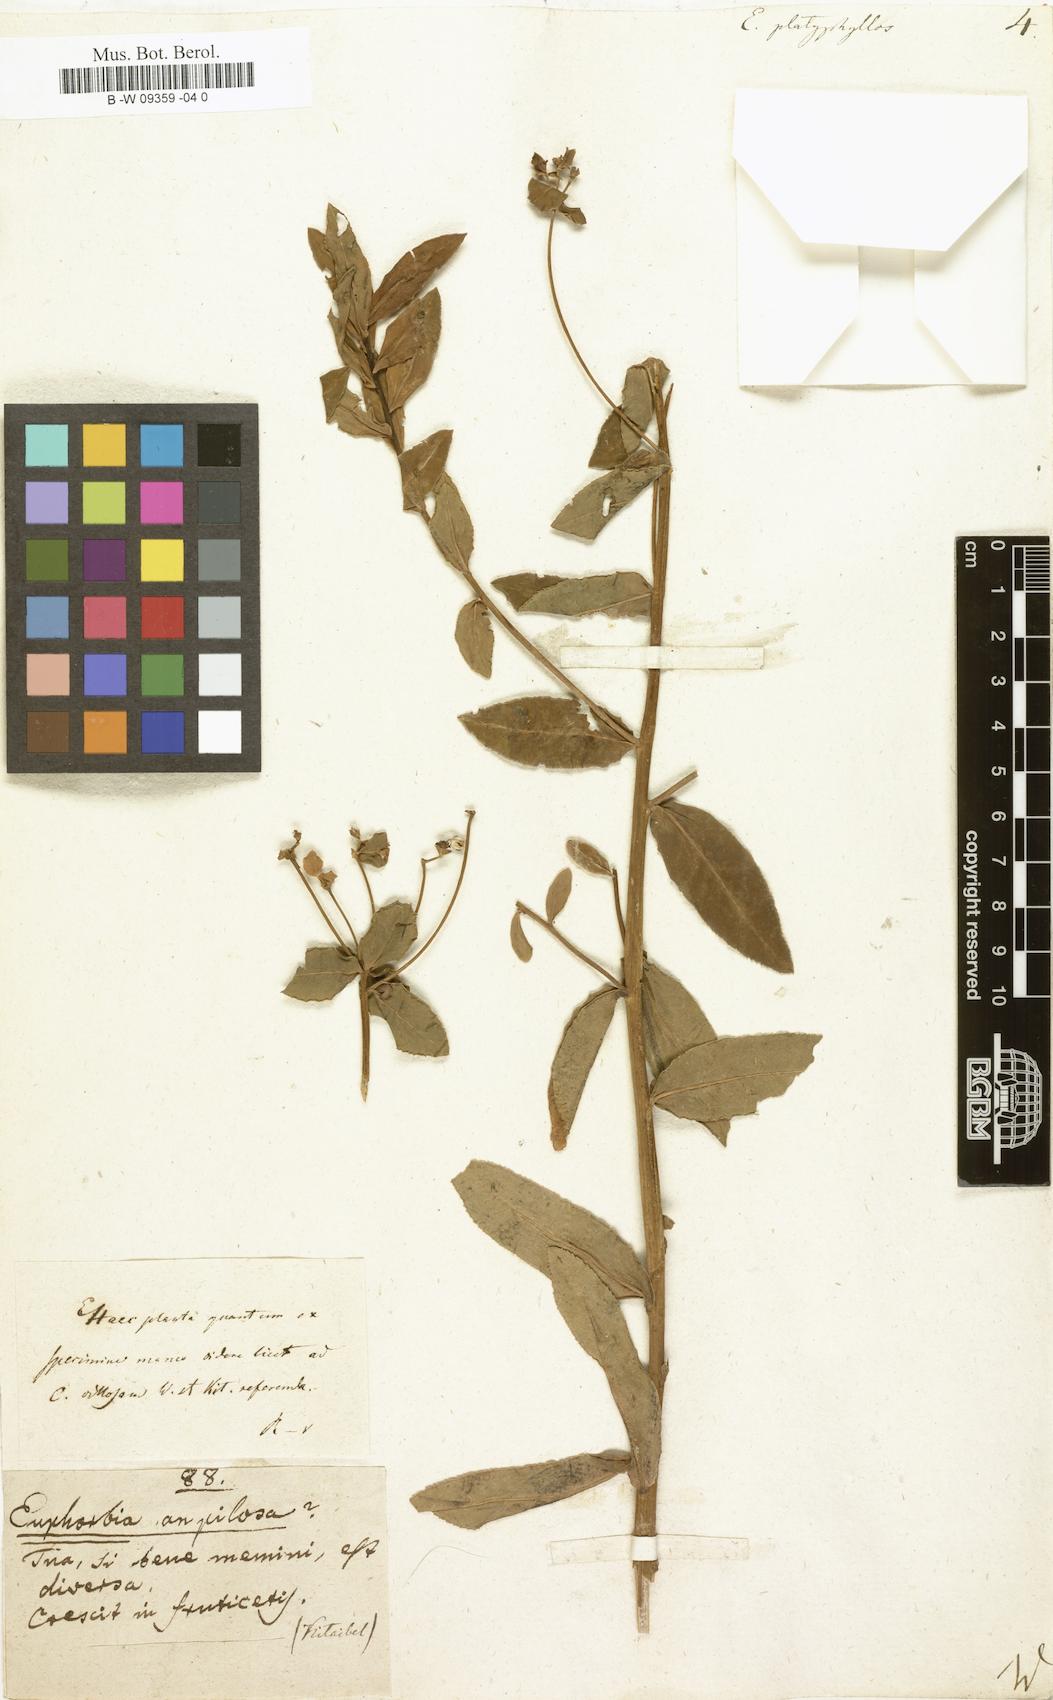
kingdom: Plantae
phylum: Tracheophyta
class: Magnoliopsida
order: Malpighiales
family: Euphorbiaceae
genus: Euphorbia
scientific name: Euphorbia platyphyllos
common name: Broad-leaved spurge
